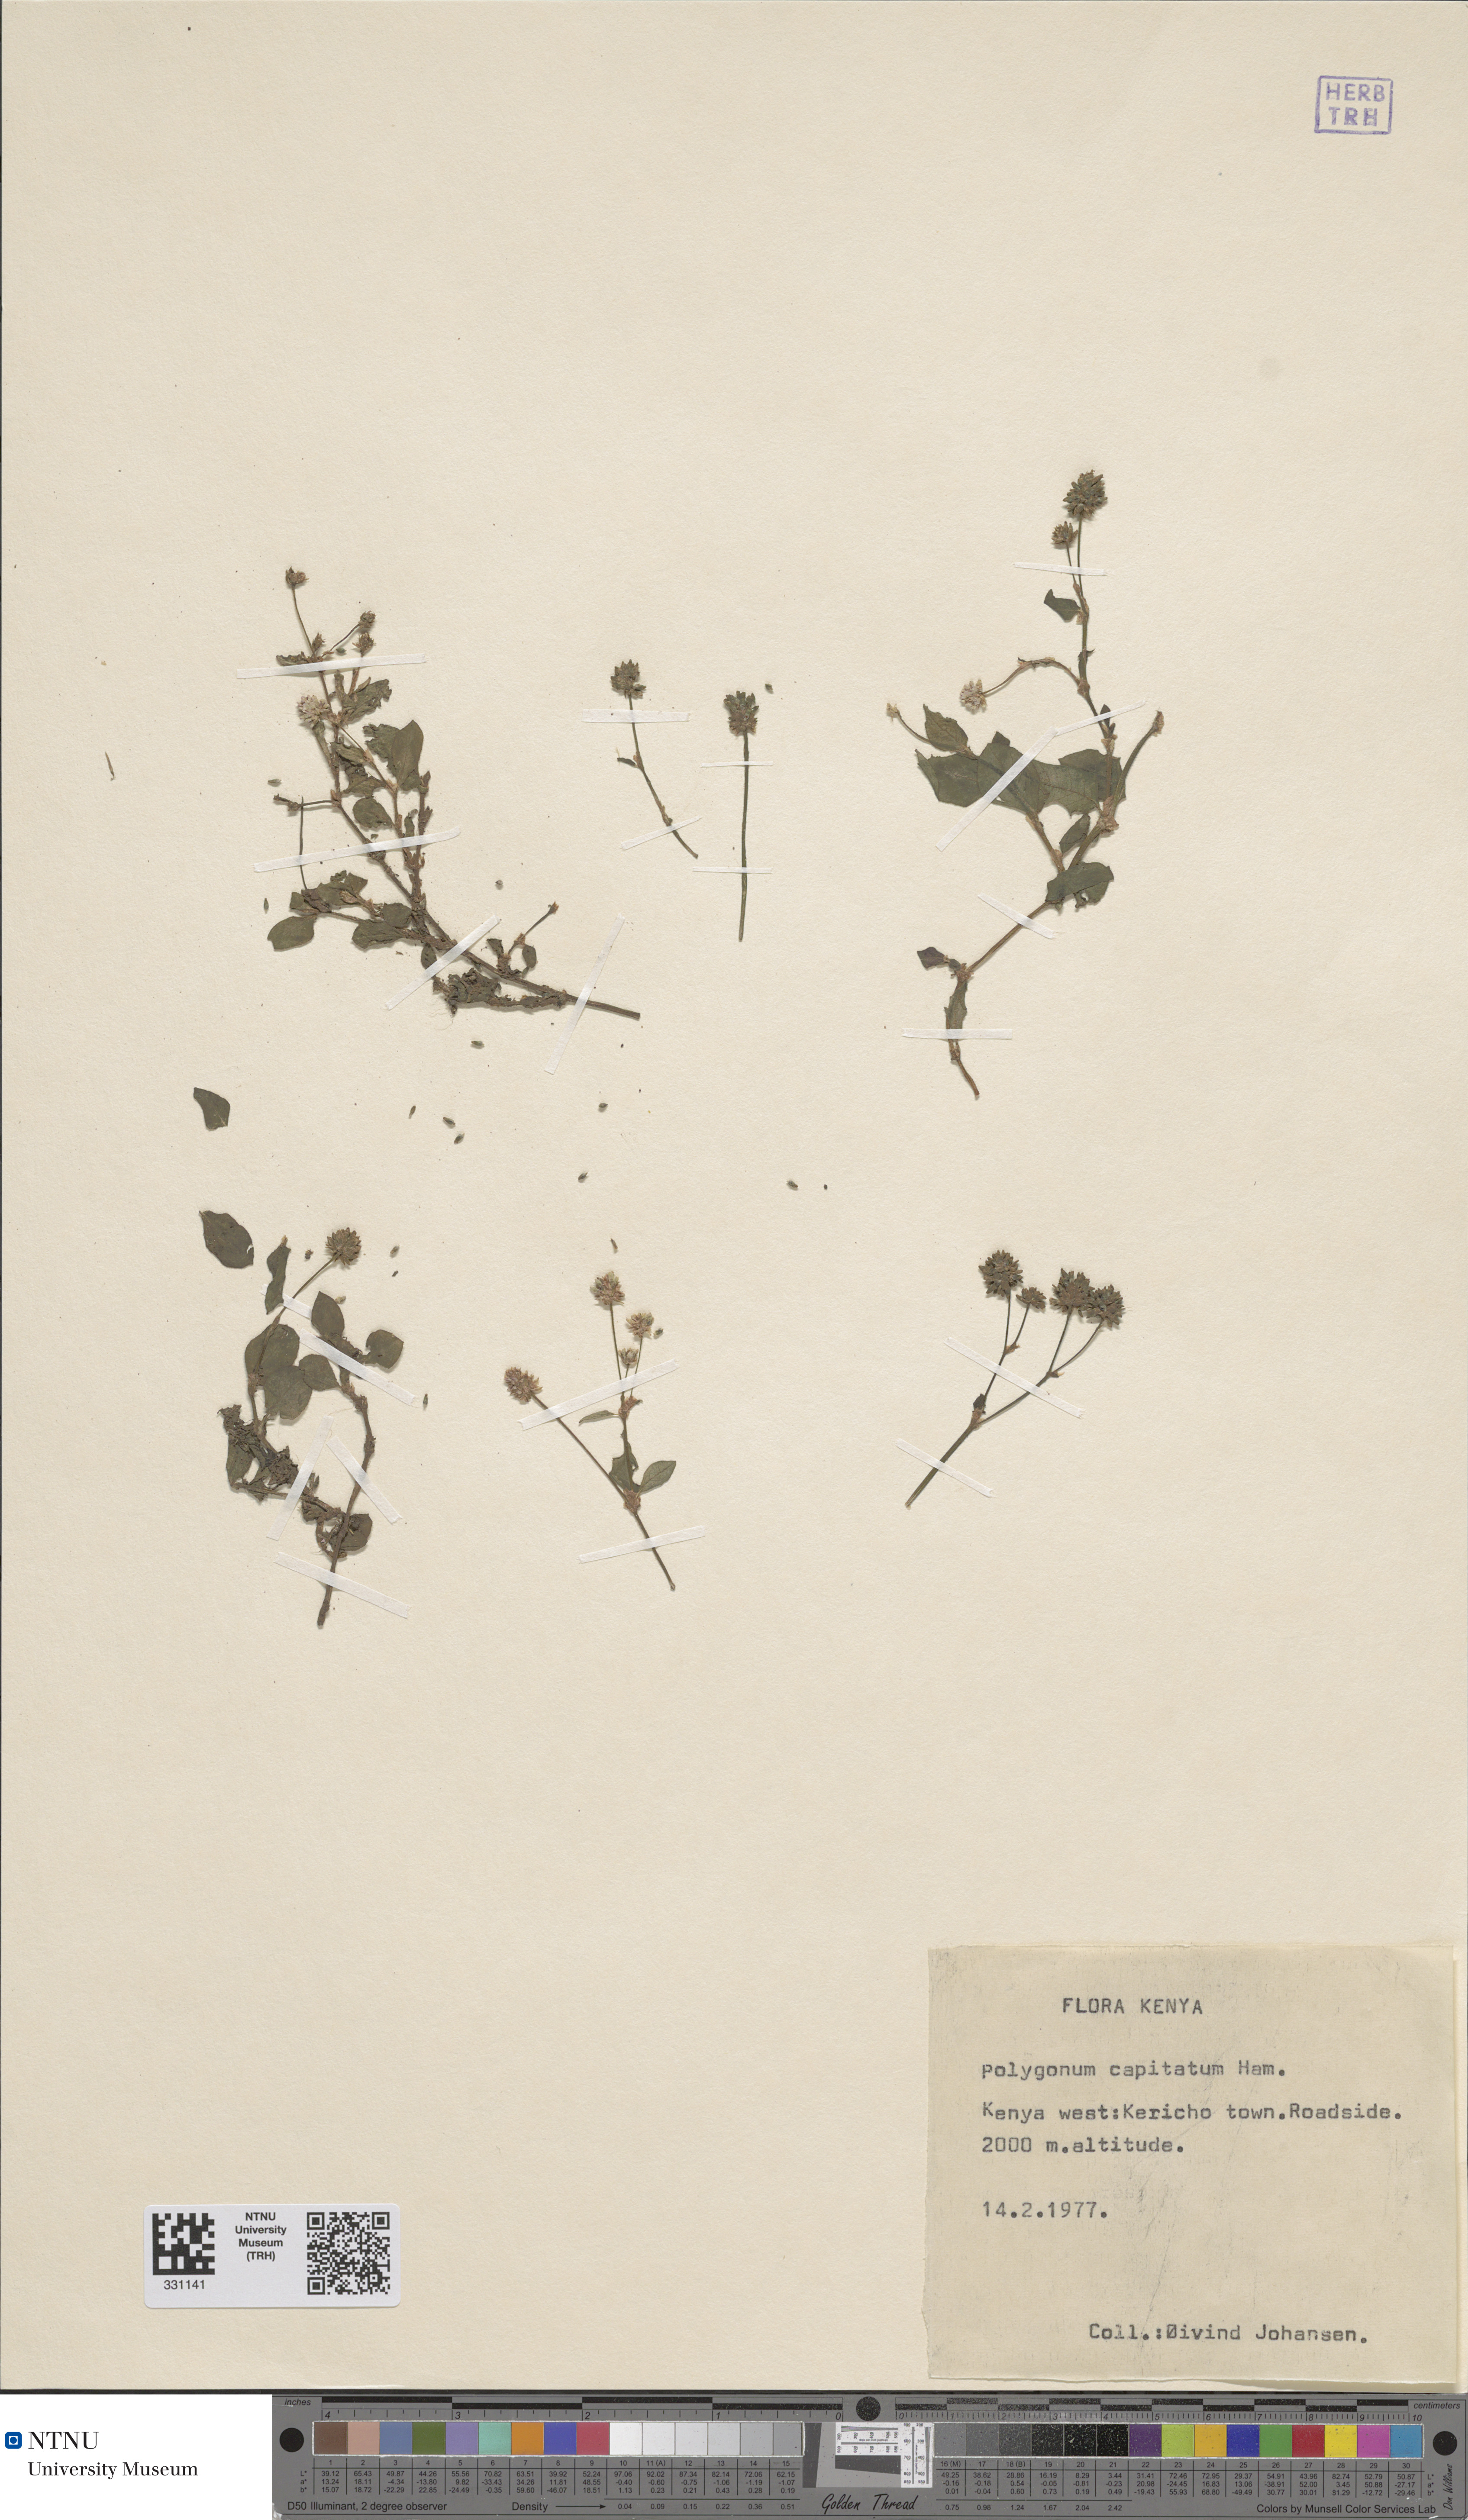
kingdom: Plantae
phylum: Tracheophyta
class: Magnoliopsida
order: Caryophyllales
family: Polygonaceae
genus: Persicaria
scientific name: Persicaria capitata
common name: Pinkhead smartweed
